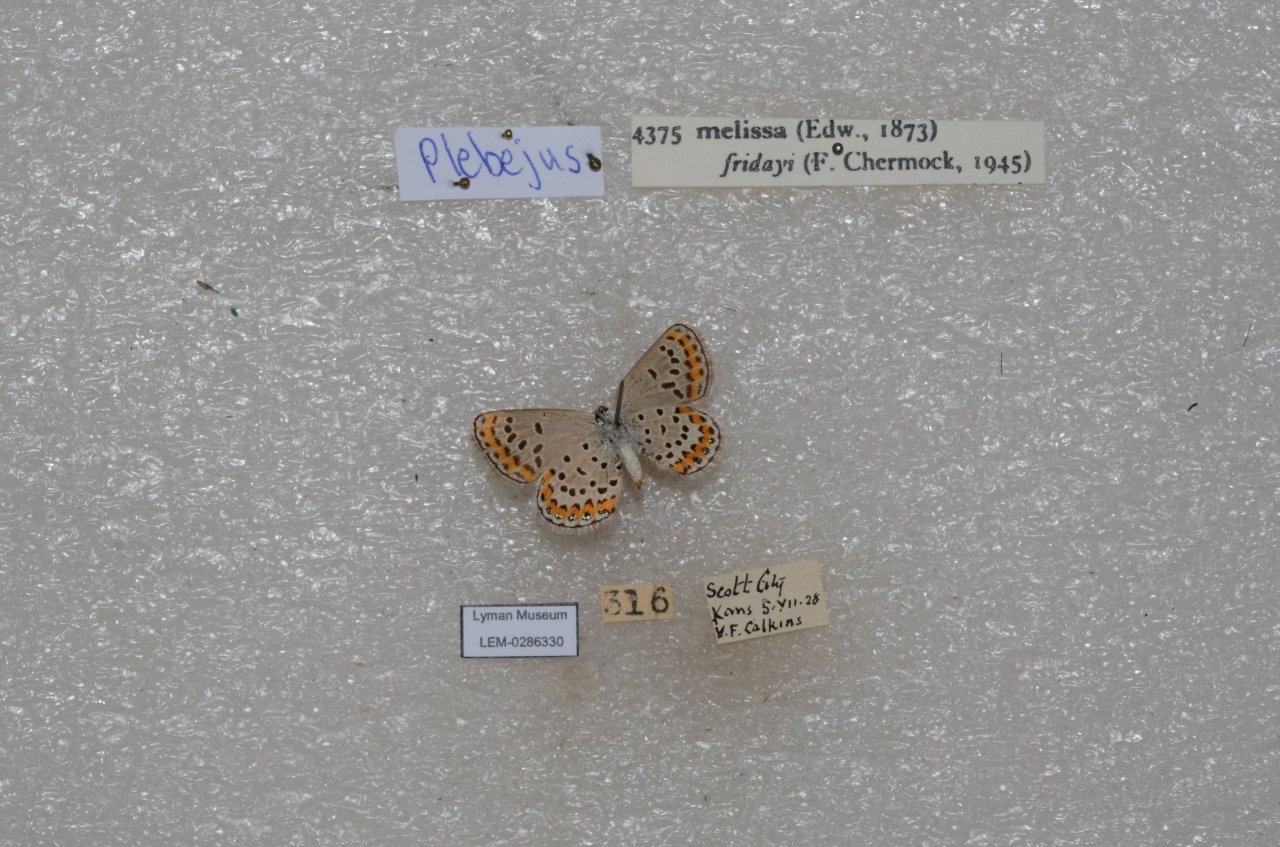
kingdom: Animalia
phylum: Arthropoda
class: Insecta
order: Lepidoptera
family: Lycaenidae
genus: Lycaeides
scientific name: Lycaeides melissa
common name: Melissa Blue
